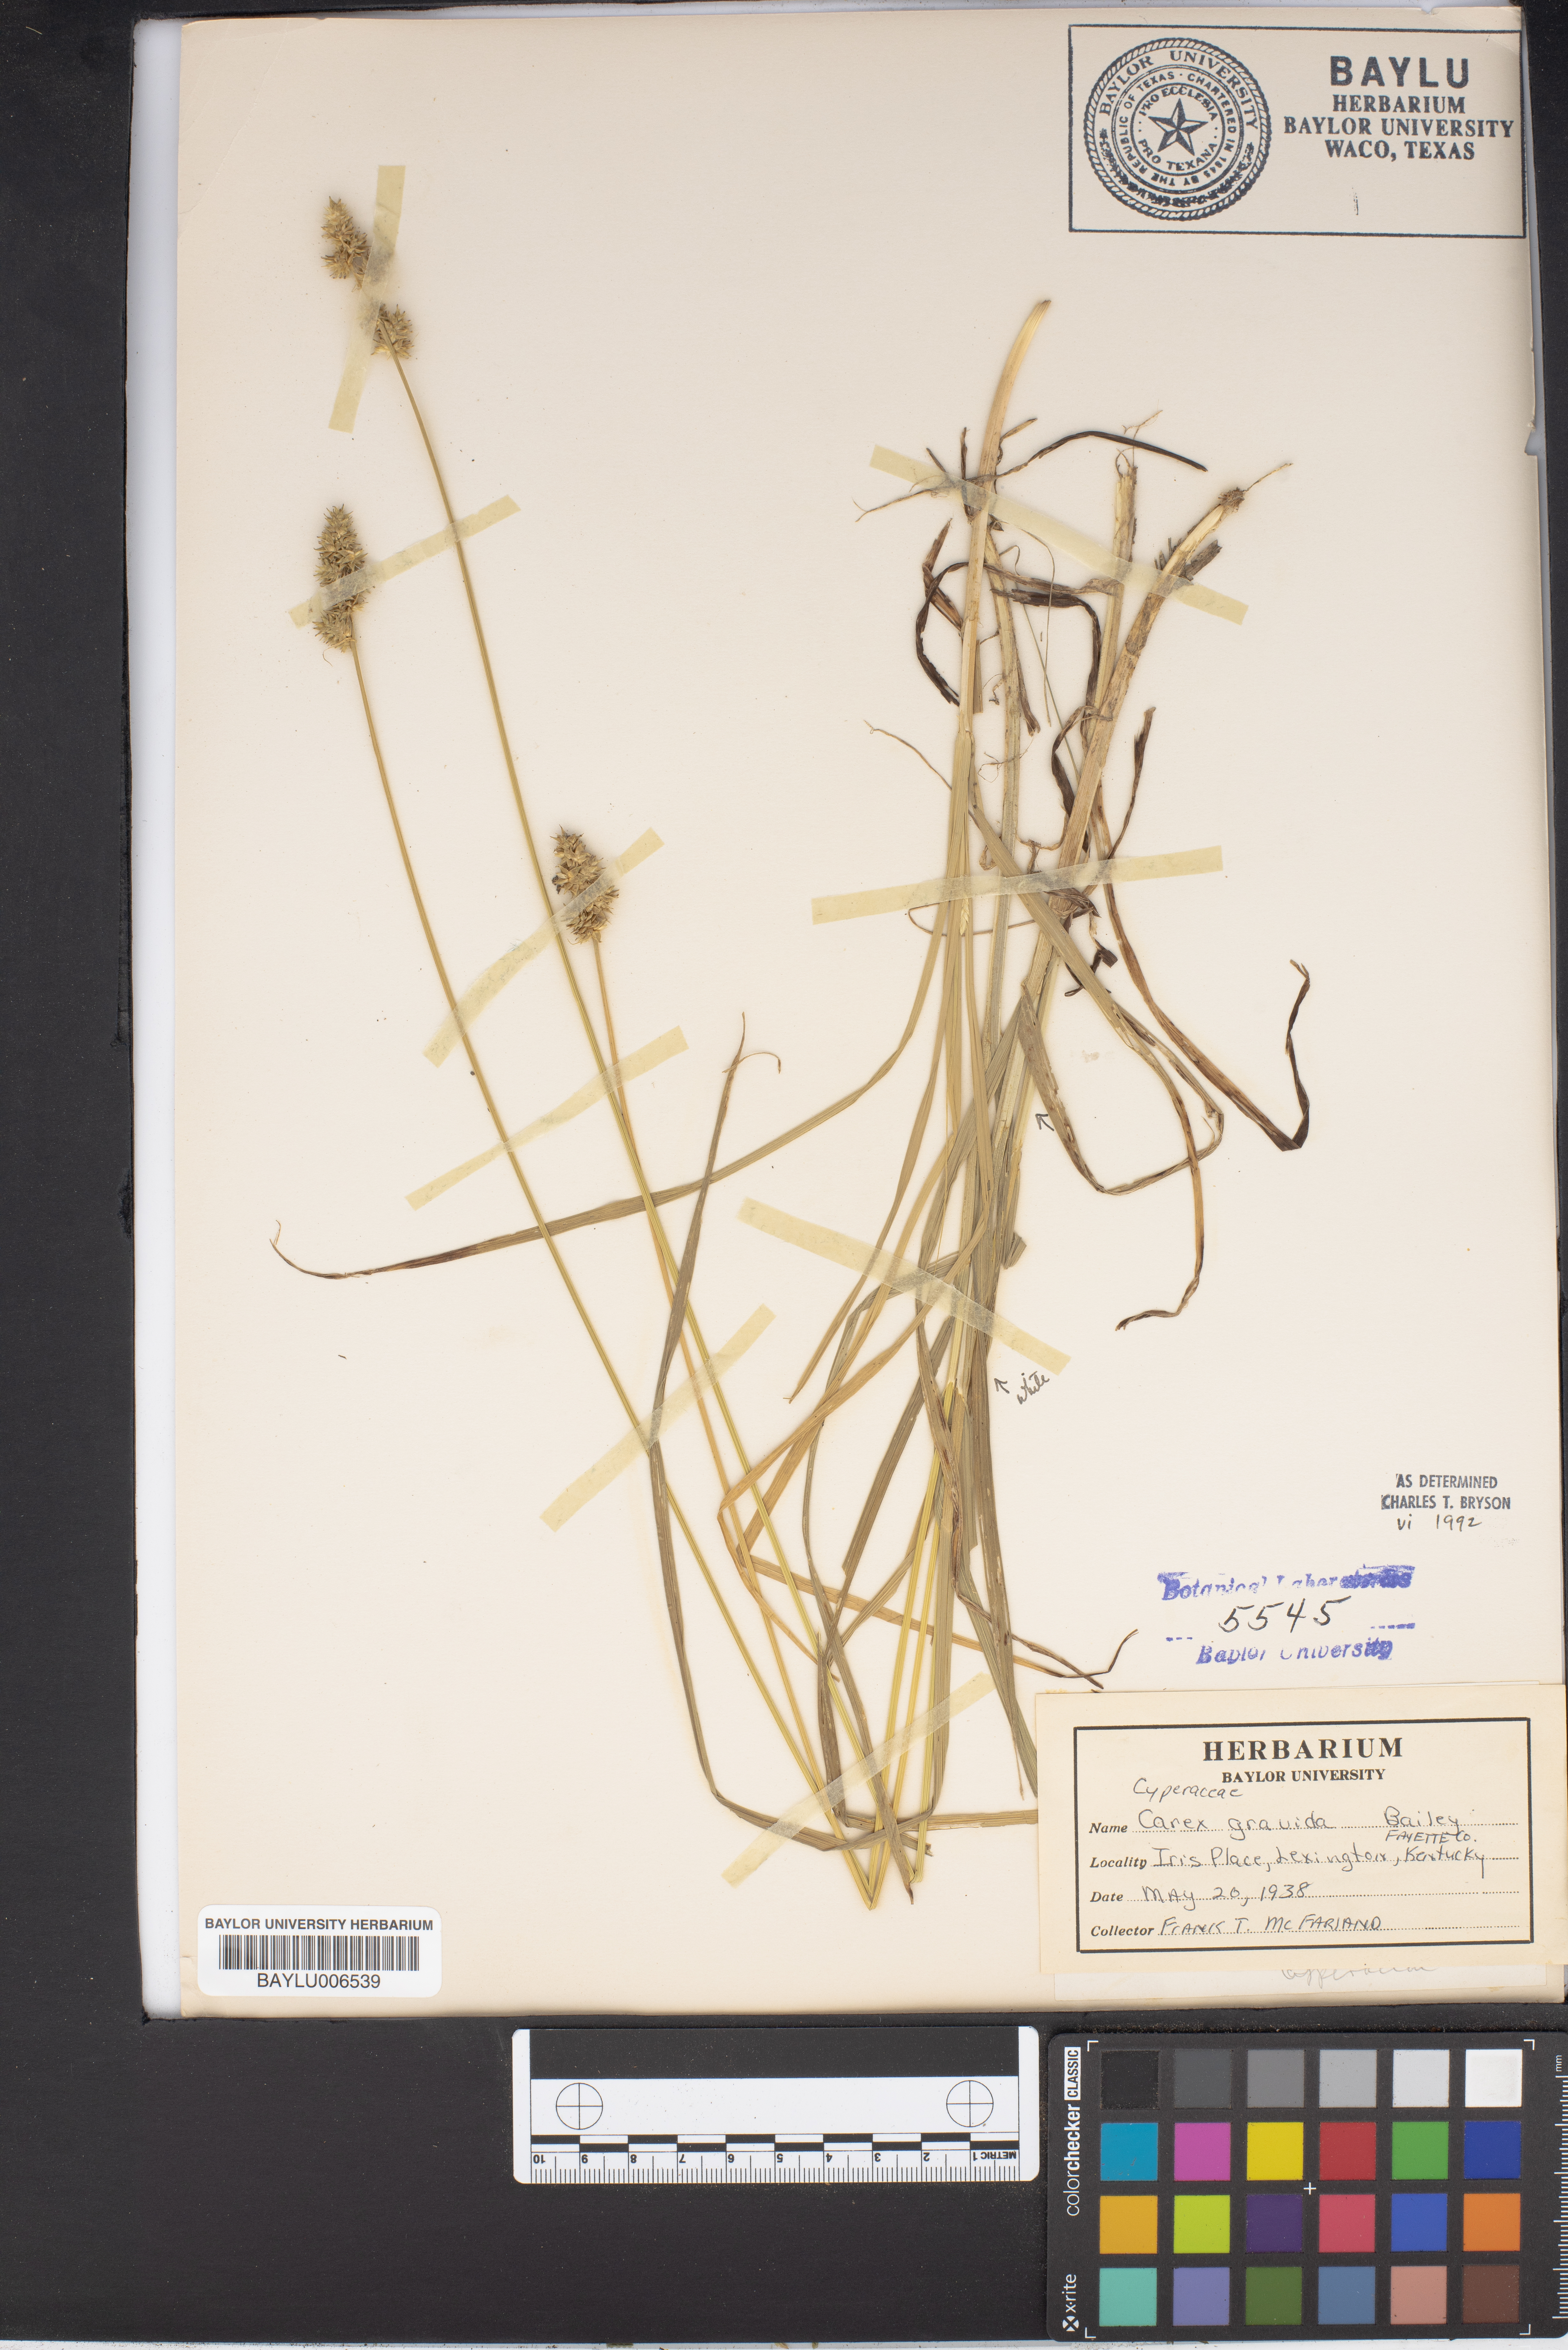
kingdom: Plantae
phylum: Tracheophyta
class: Liliopsida
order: Poales
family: Cyperaceae
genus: Carex
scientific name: Carex gravida
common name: Heavy sedge
